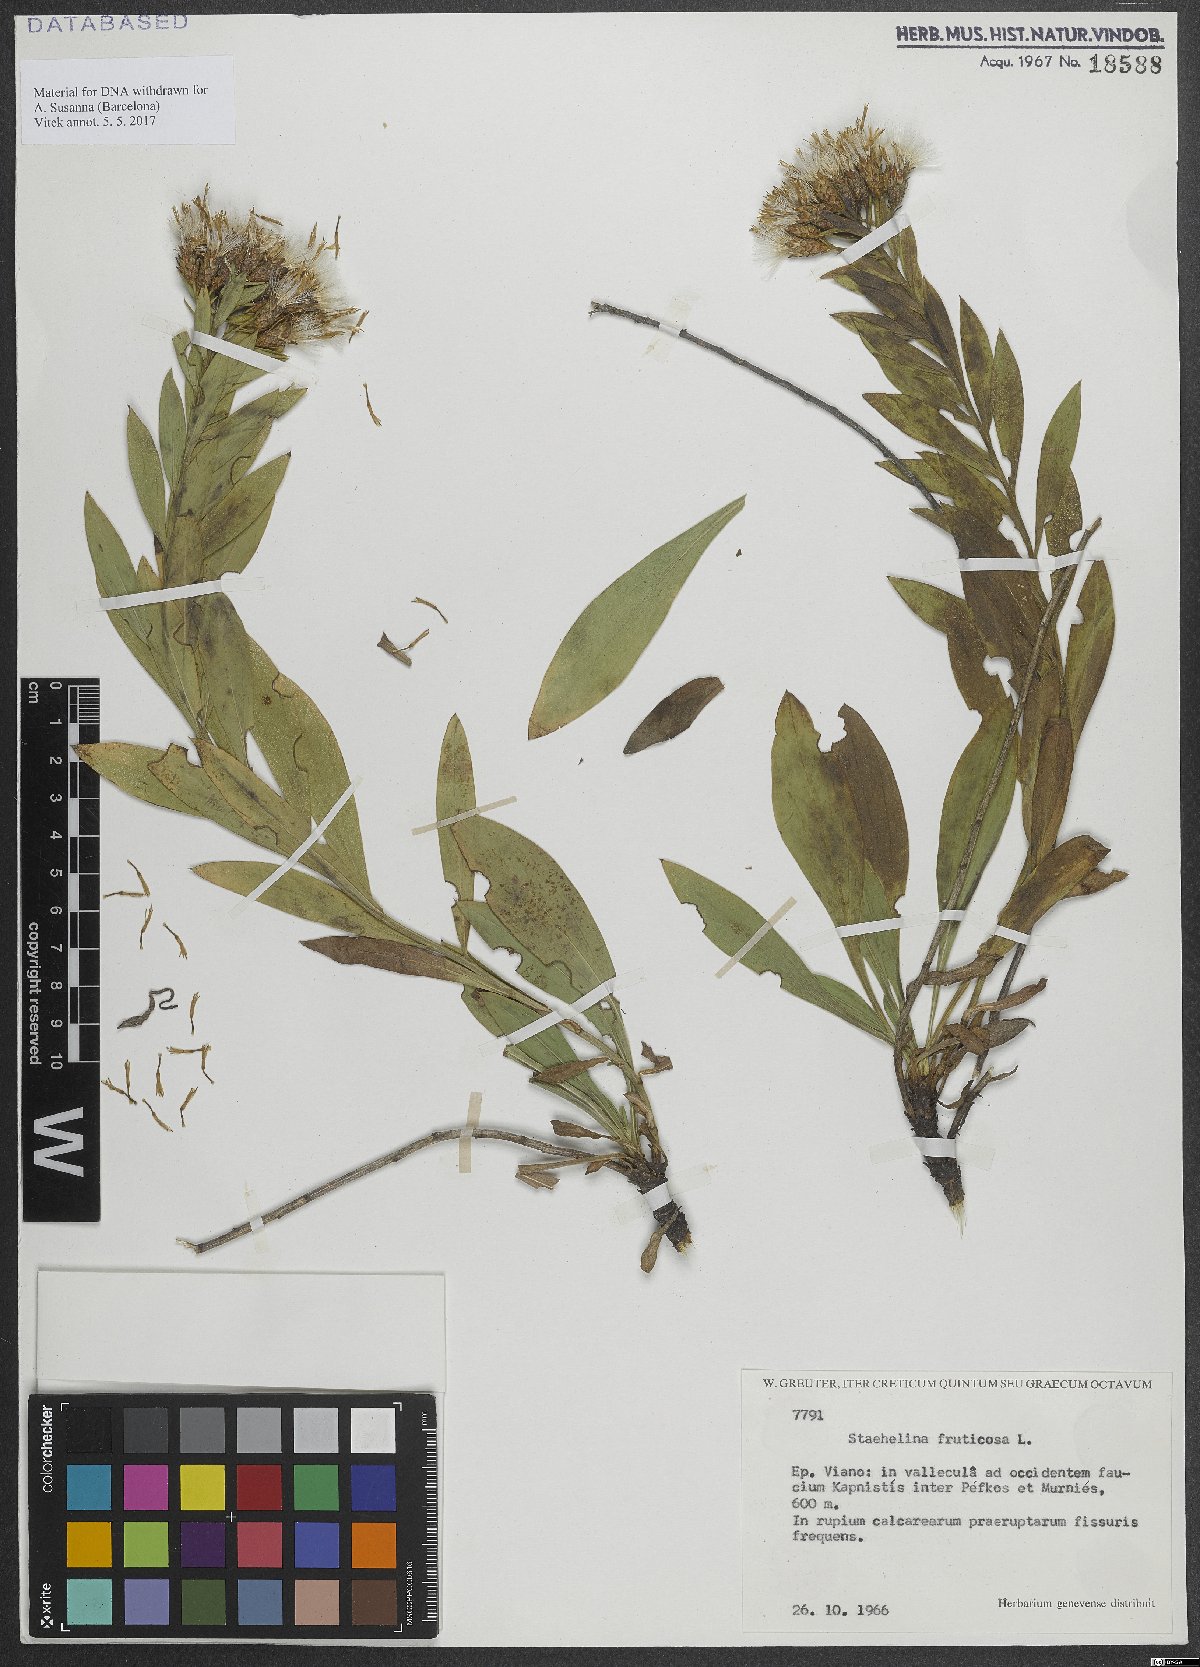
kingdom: Plantae
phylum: Tracheophyta
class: Magnoliopsida
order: Asterales
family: Asteraceae
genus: Hirtellina
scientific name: Hirtellina fruticosa
